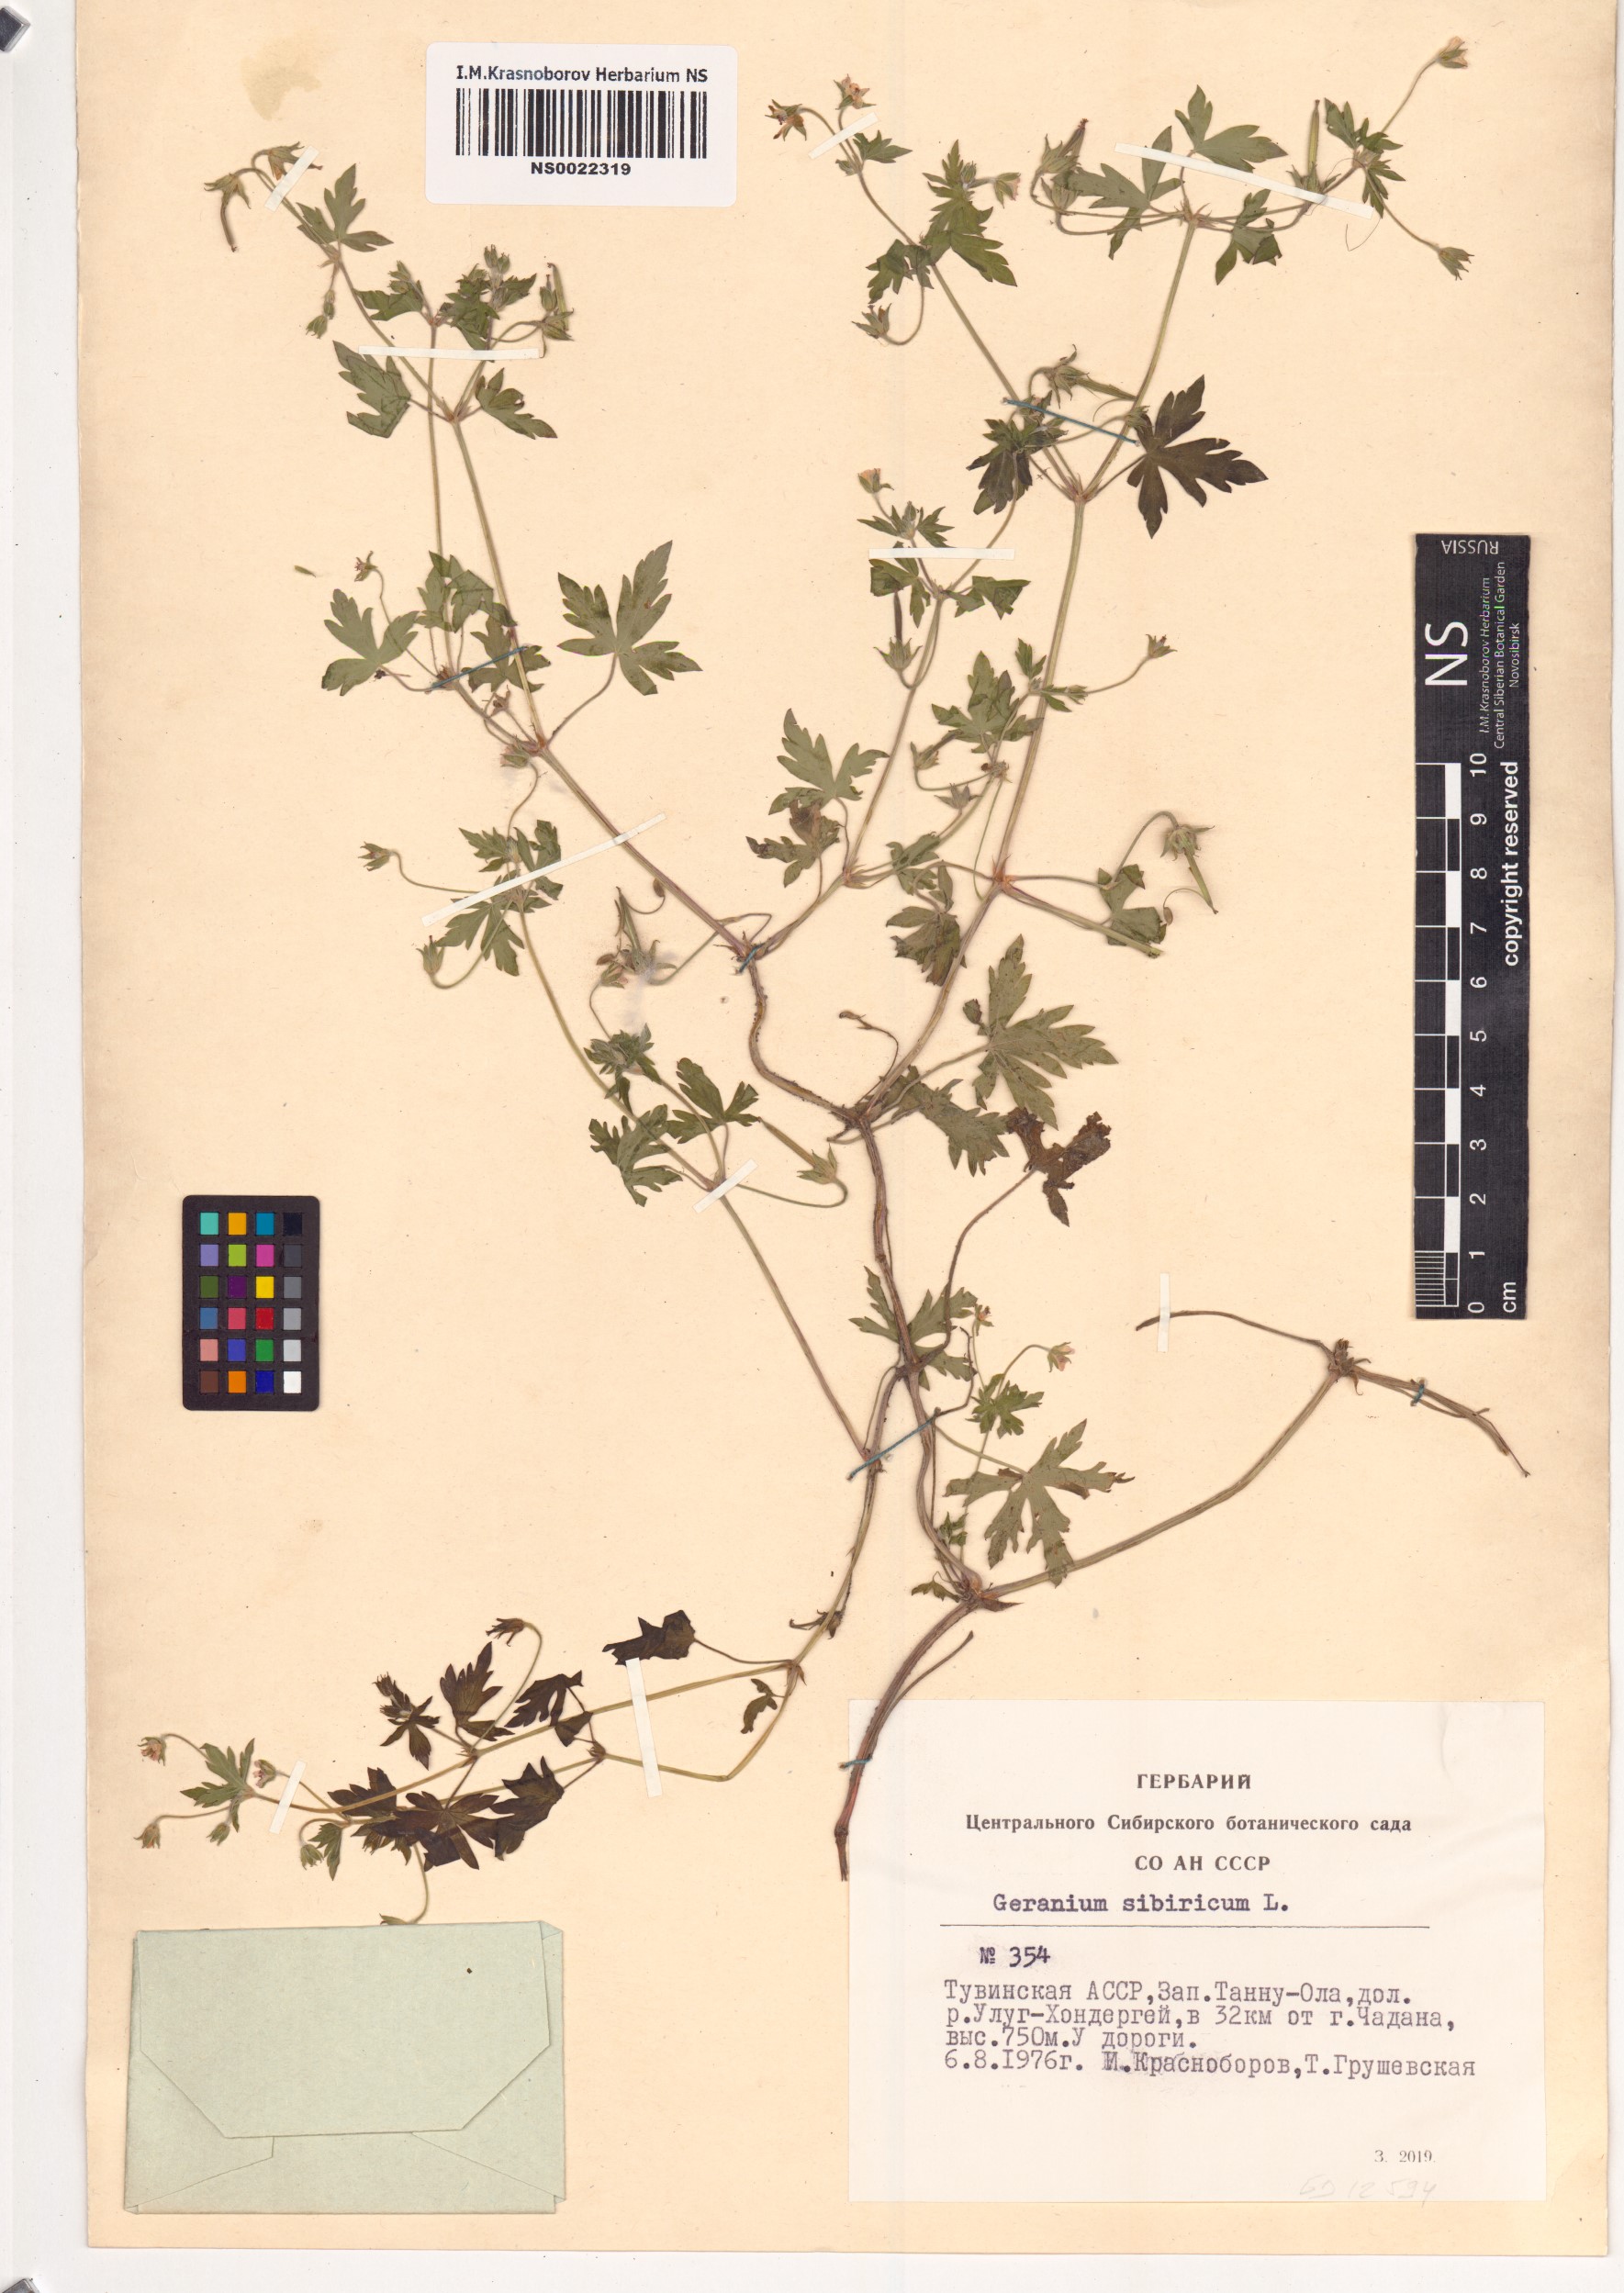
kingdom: Plantae
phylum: Tracheophyta
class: Magnoliopsida
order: Geraniales
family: Geraniaceae
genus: Geranium
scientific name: Geranium sibiricum
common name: Siberian crane's-bill
